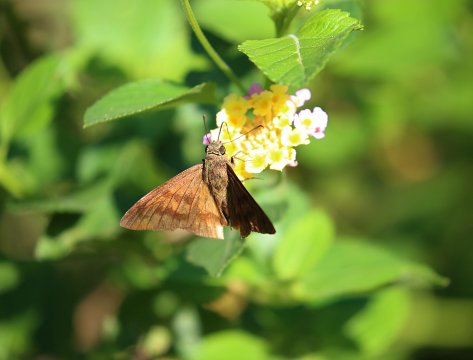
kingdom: Animalia
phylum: Arthropoda
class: Insecta
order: Lepidoptera
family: Hesperiidae
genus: Astraptes
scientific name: Astraptes anaphus
